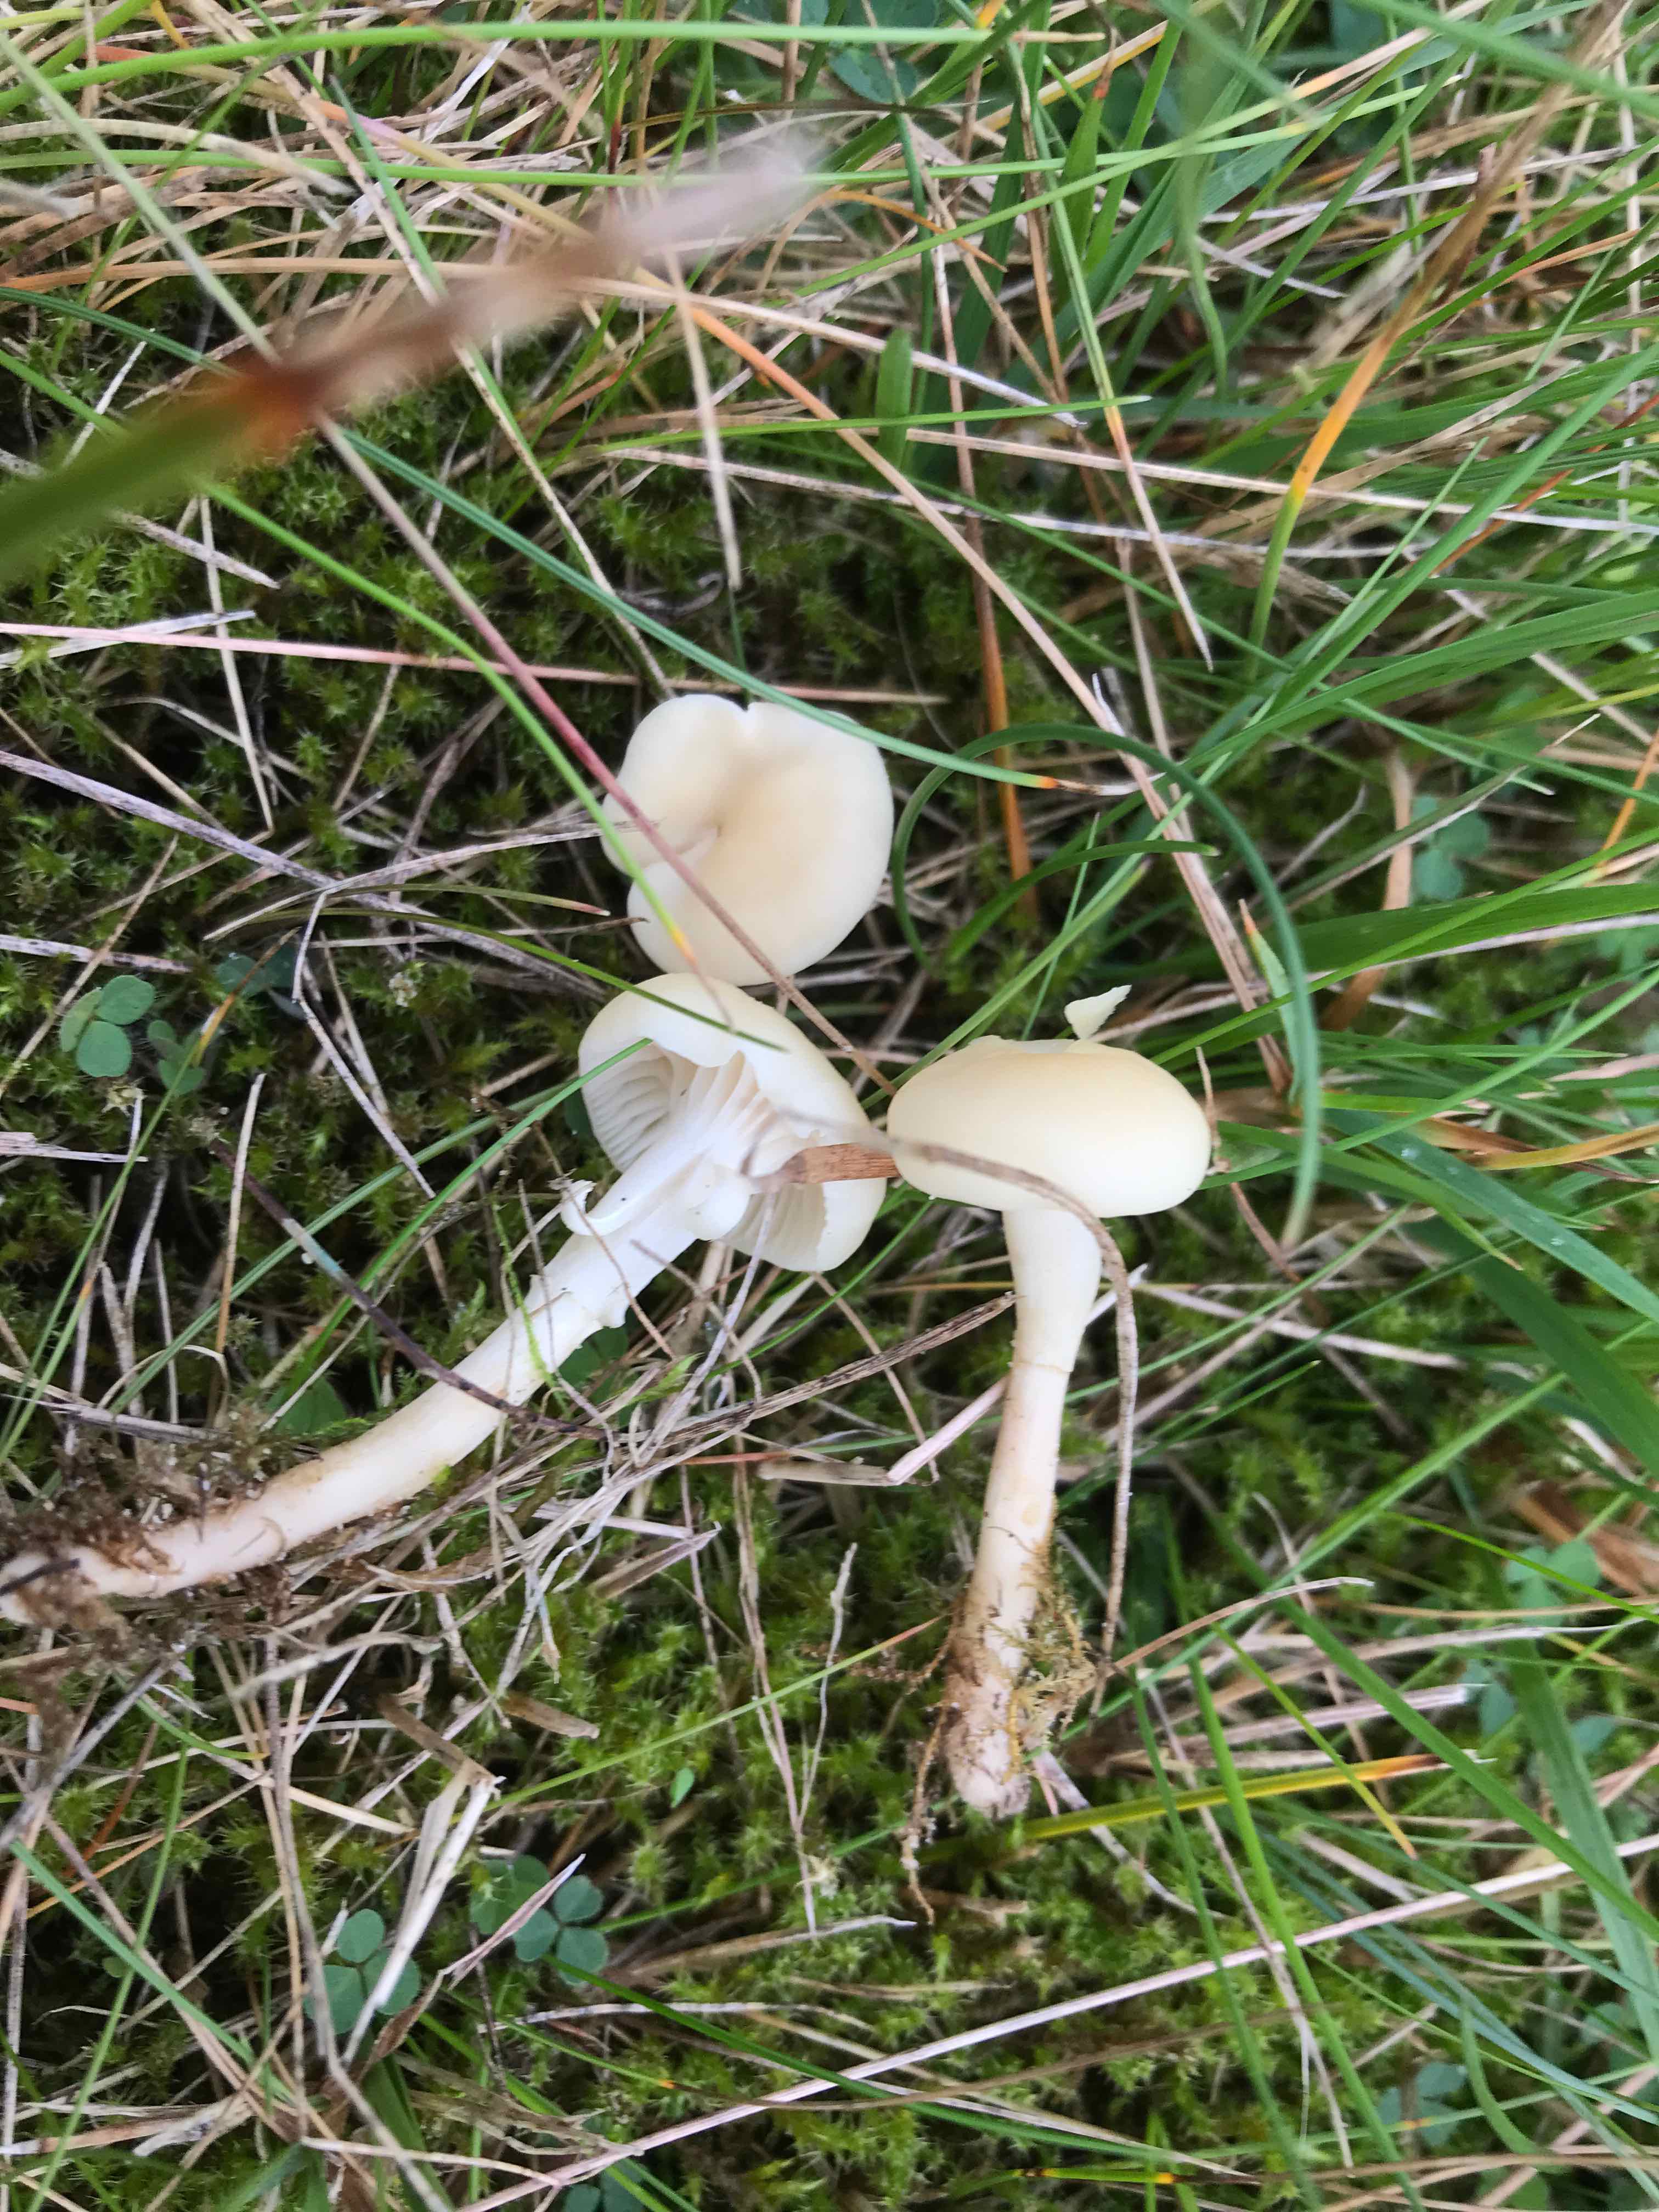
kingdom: Fungi
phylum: Basidiomycota
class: Agaricomycetes
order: Agaricales
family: Hygrophoraceae
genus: Cuphophyllus
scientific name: Cuphophyllus russocoriaceus
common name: ruslæder-vokshat
